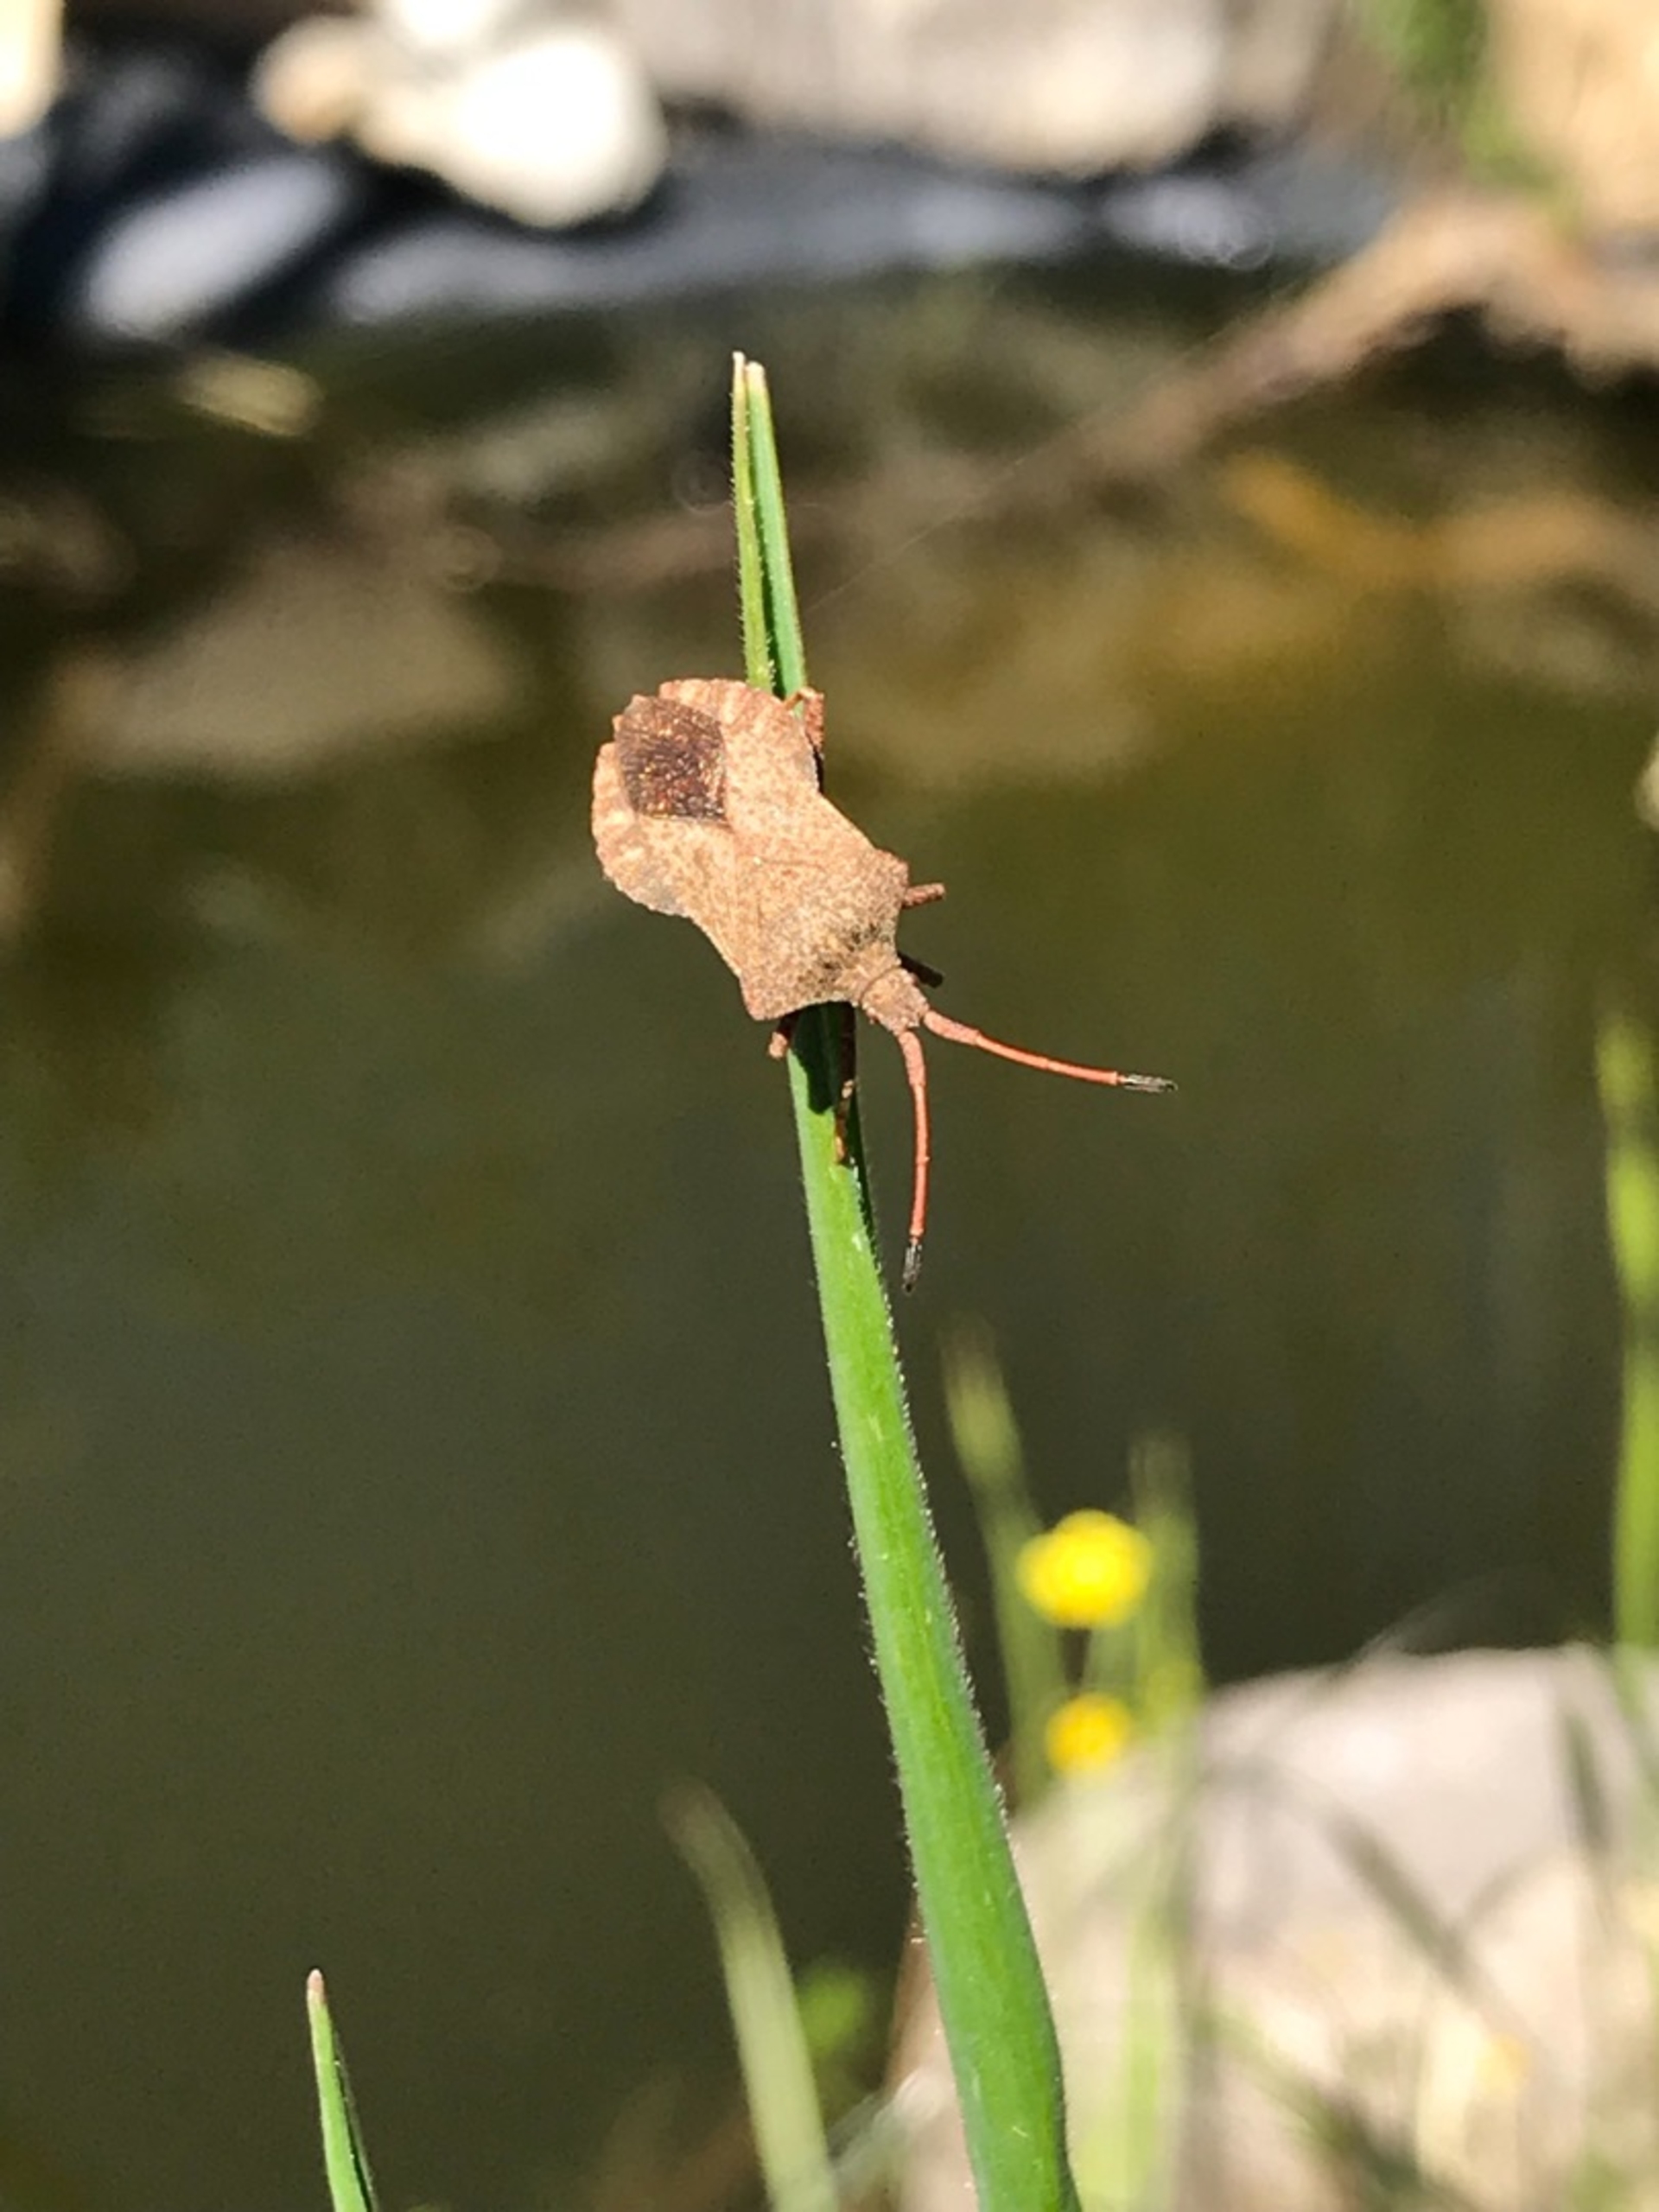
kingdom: Animalia
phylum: Arthropoda
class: Insecta
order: Hemiptera
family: Coreidae
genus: Coreus
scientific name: Coreus marginatus
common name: Skræppetæge
